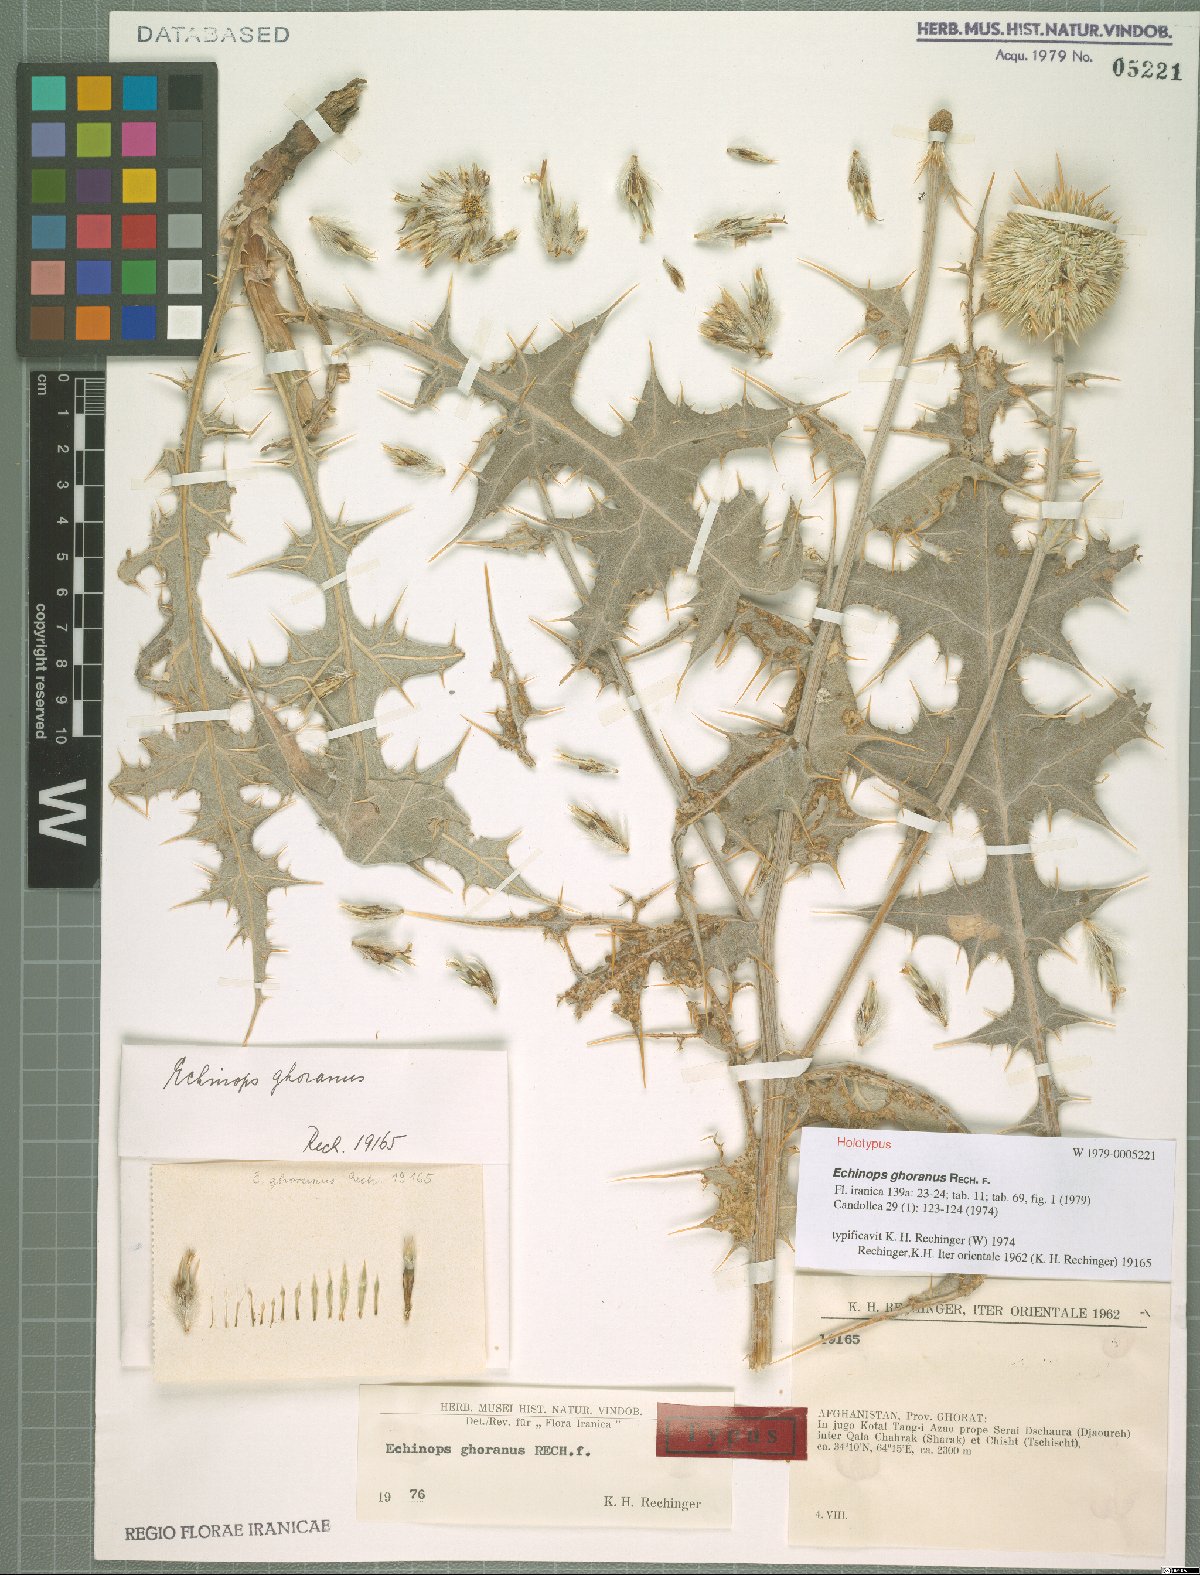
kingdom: Plantae
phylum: Tracheophyta
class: Magnoliopsida
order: Asterales
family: Asteraceae
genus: Echinops
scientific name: Echinops ghoranus
